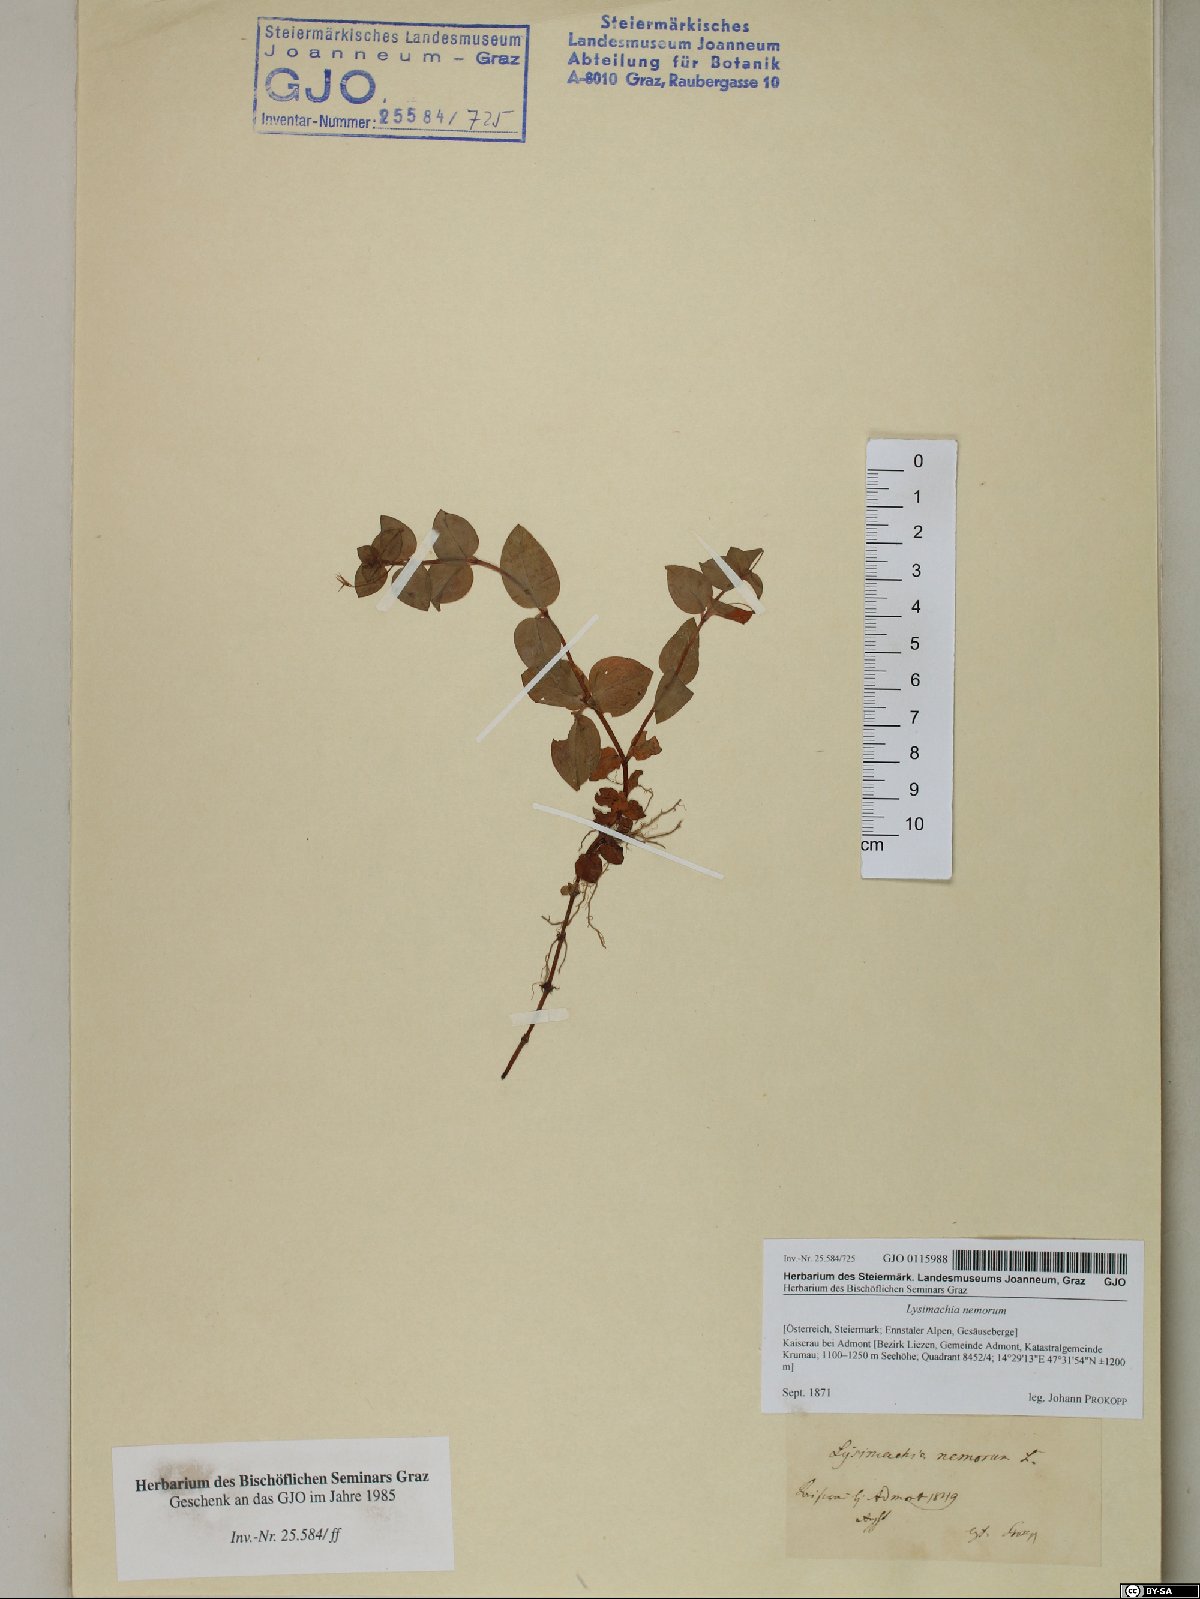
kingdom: Plantae
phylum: Tracheophyta
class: Magnoliopsida
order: Ericales
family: Primulaceae
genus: Lysimachia
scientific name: Lysimachia nemorum
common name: Yellow pimpernel
